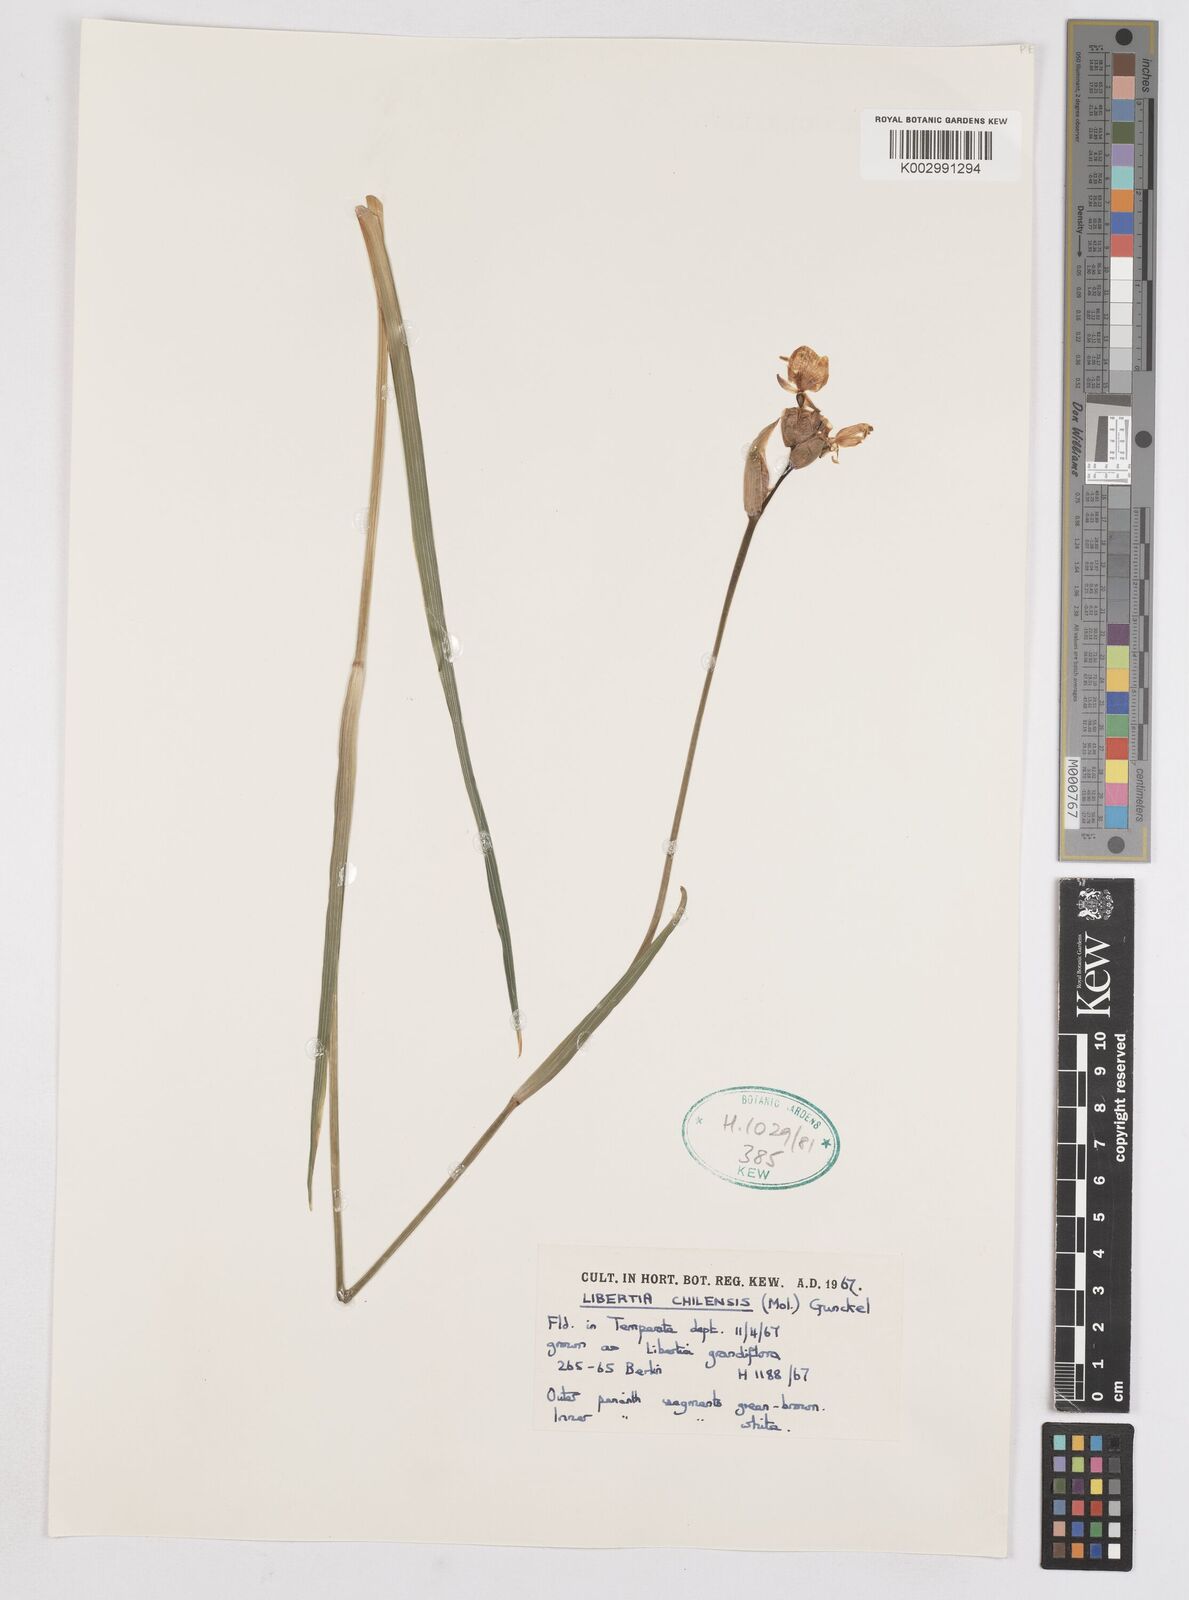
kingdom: Plantae
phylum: Tracheophyta
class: Liliopsida
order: Asparagales
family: Iridaceae
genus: Libertia
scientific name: Libertia chilensis
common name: Satin flower
